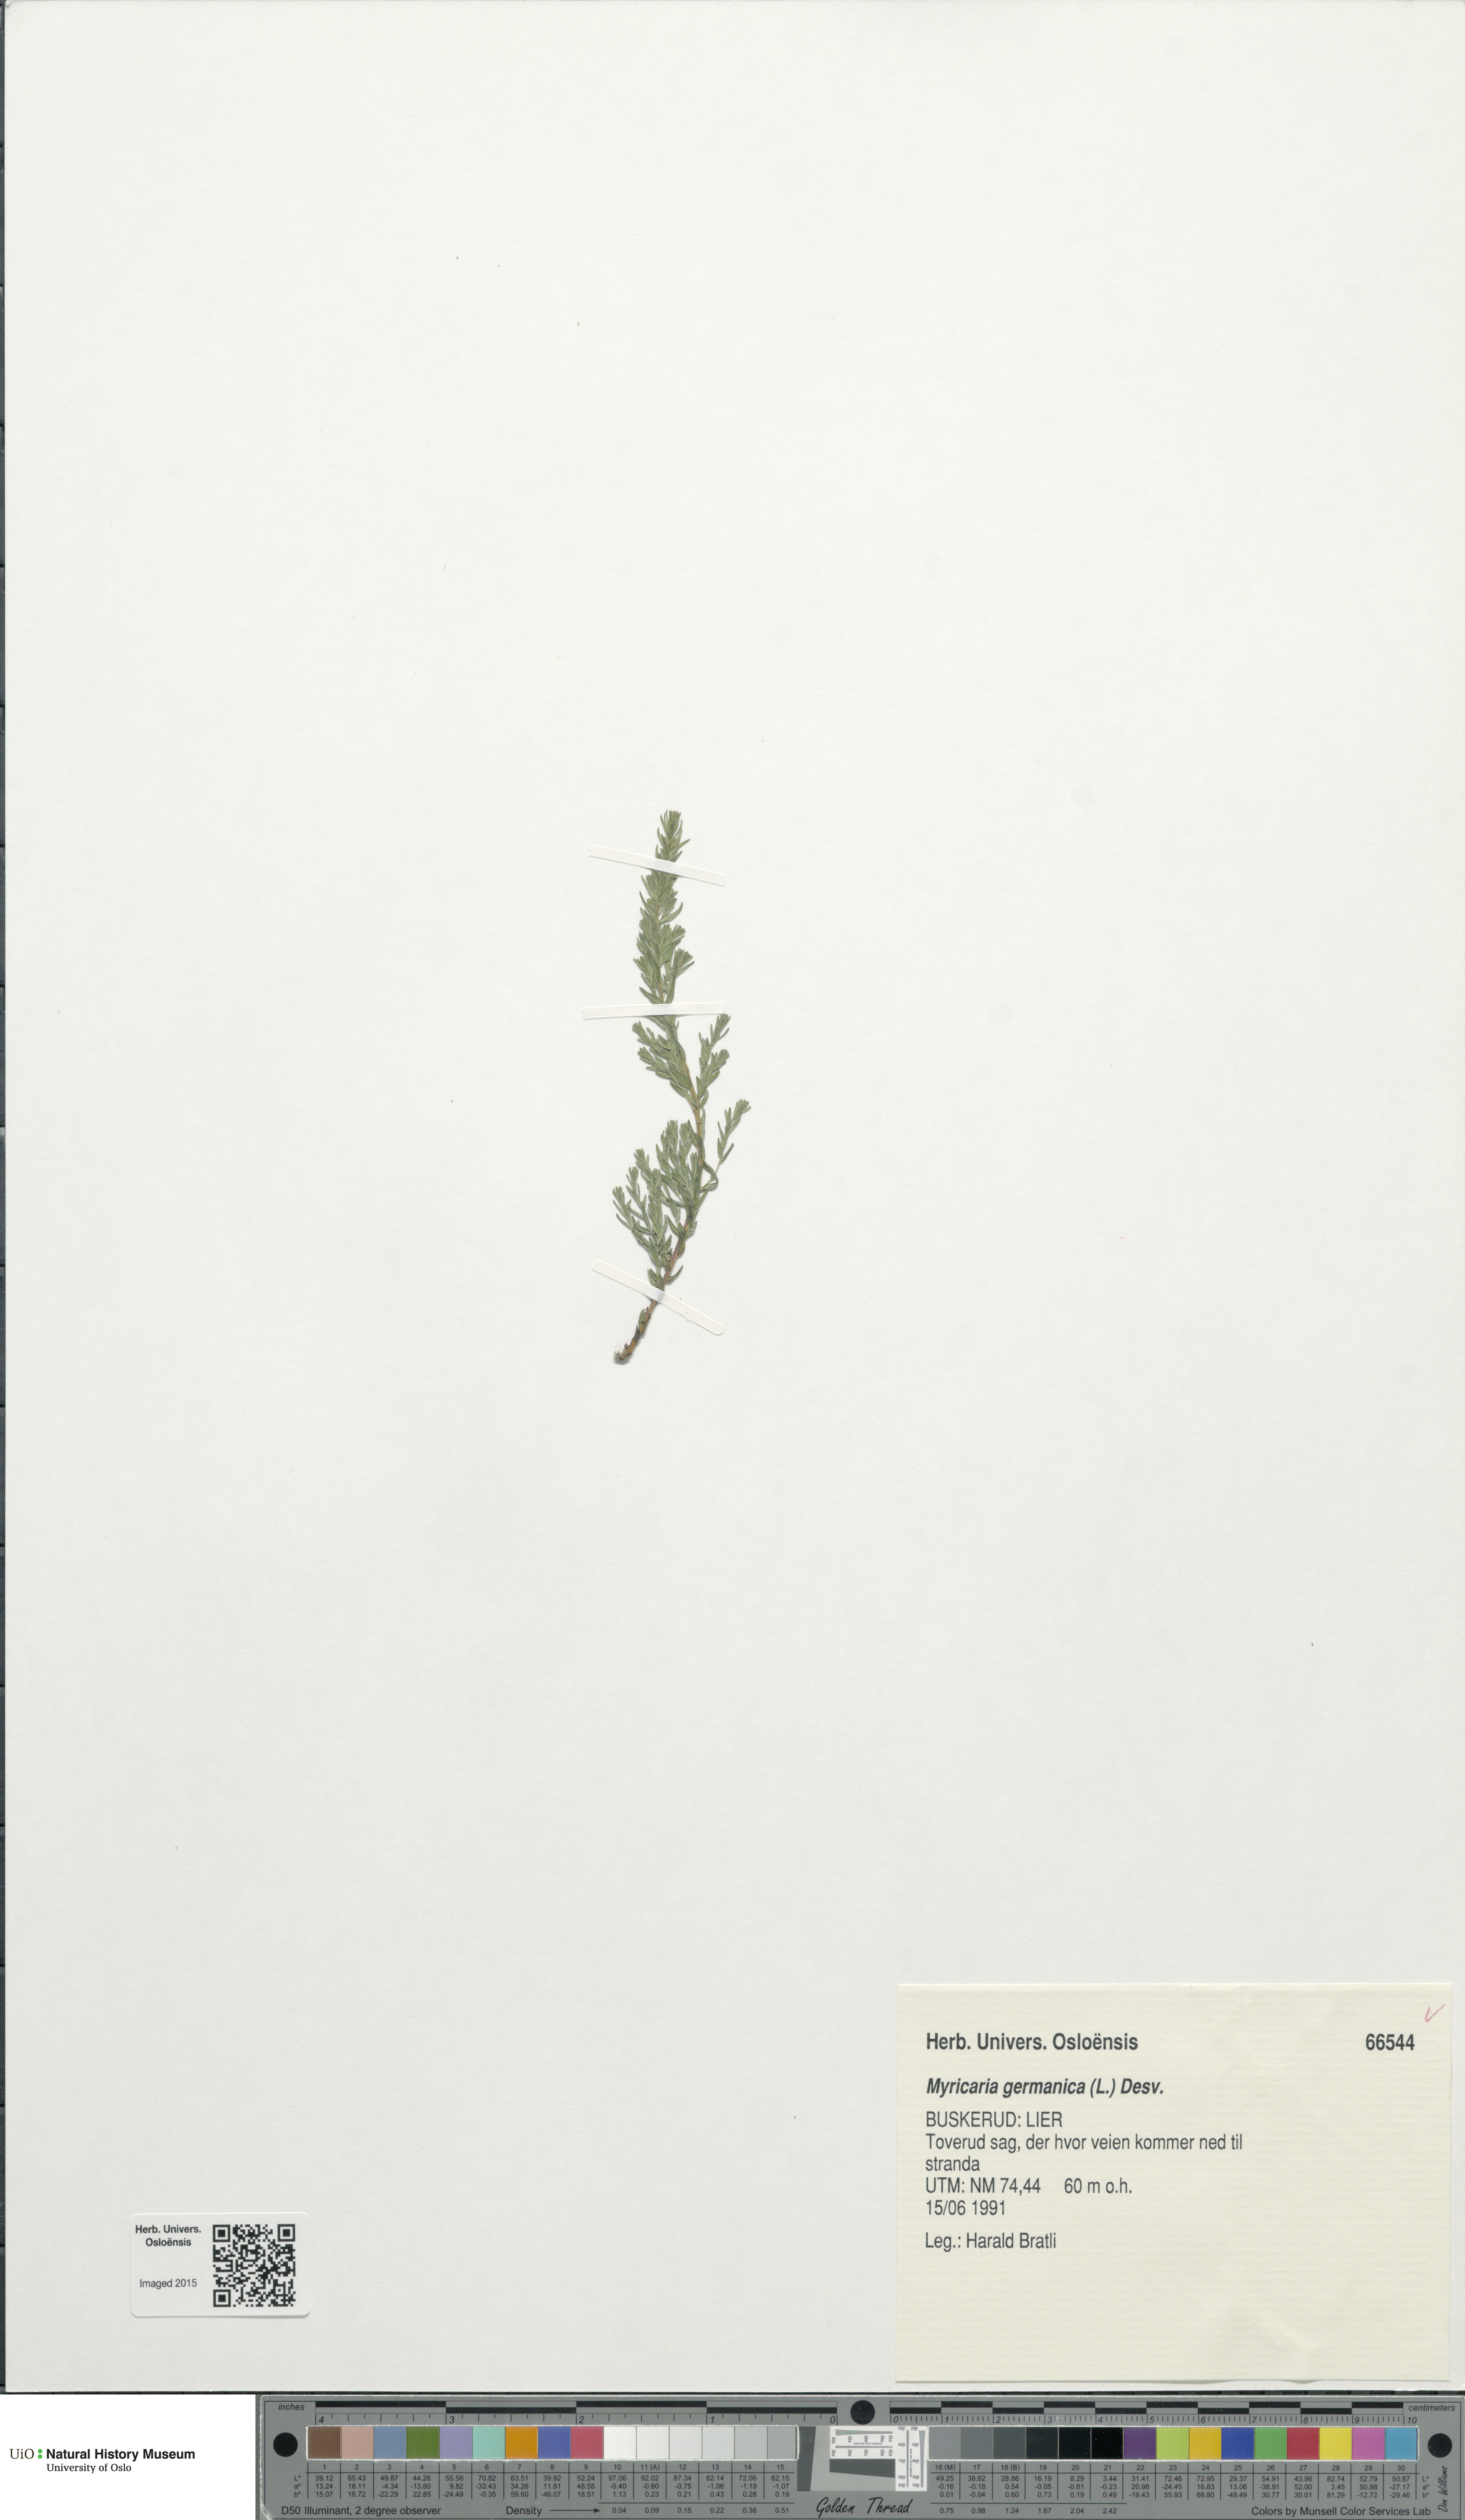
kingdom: Plantae
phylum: Tracheophyta
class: Magnoliopsida
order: Caryophyllales
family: Tamaricaceae
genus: Myricaria
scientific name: Myricaria germanica
